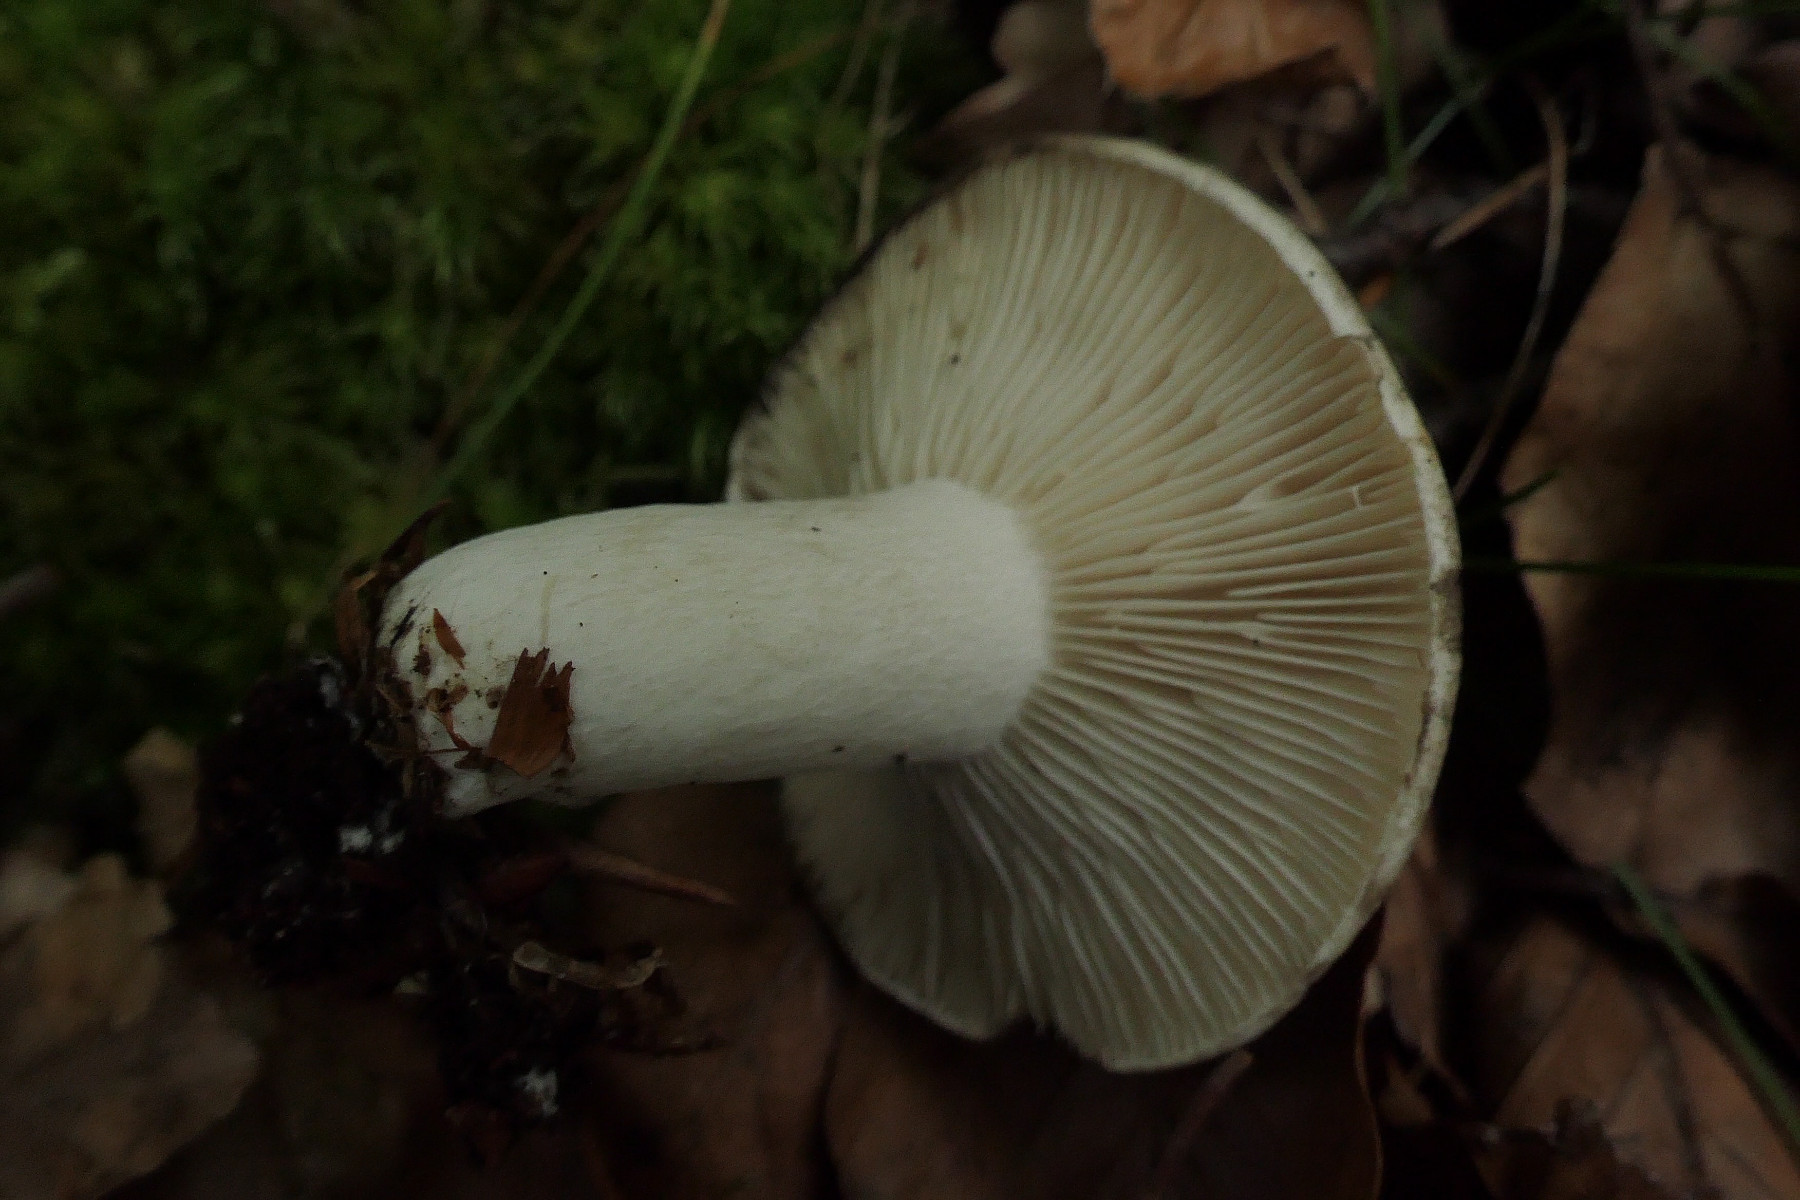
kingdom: Fungi
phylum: Basidiomycota
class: Agaricomycetes
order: Russulales
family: Russulaceae
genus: Russula
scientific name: Russula densifolia
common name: tætbladet skørhat
